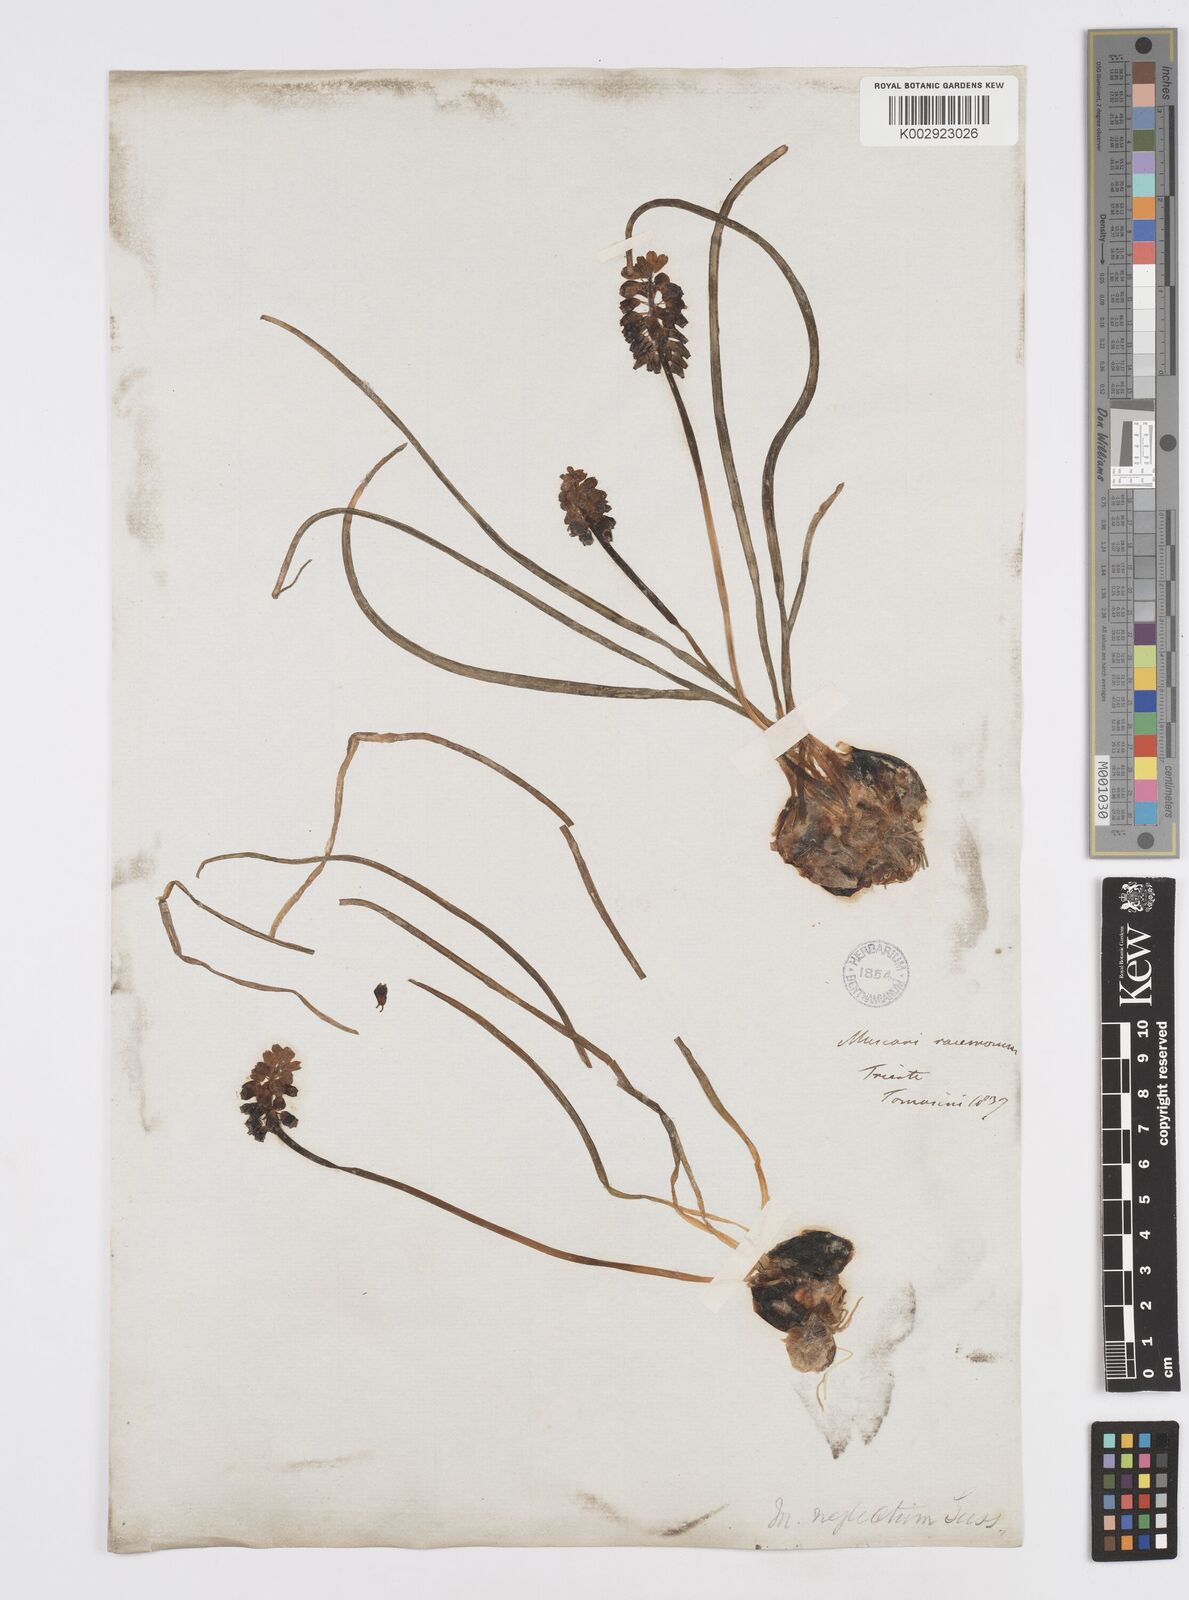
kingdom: Plantae
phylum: Tracheophyta
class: Liliopsida
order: Asparagales
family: Asparagaceae
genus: Muscari
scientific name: Muscari neglectum
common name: Grape-hyacinth
